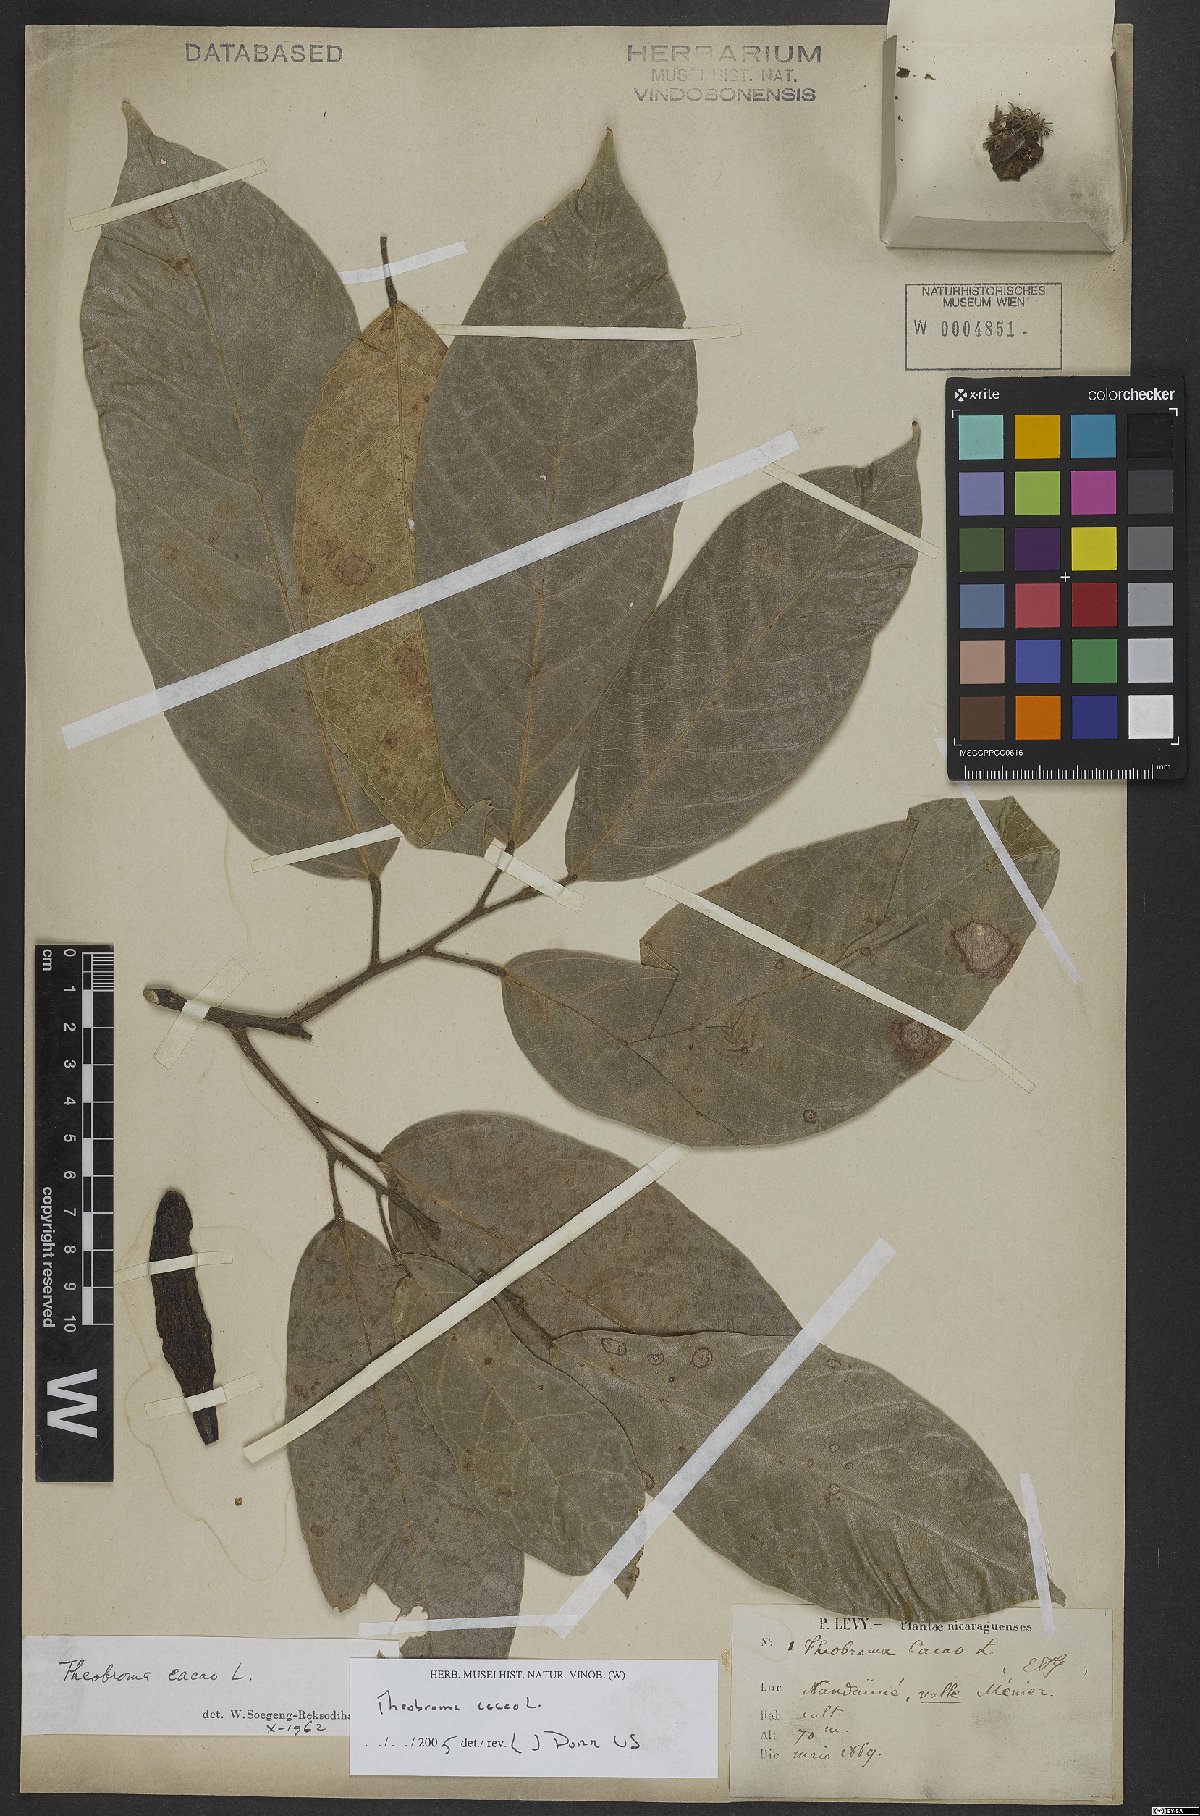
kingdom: Plantae
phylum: Tracheophyta
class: Magnoliopsida
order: Malvales
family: Malvaceae
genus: Theobroma
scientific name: Theobroma cacao
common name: Cocoa
